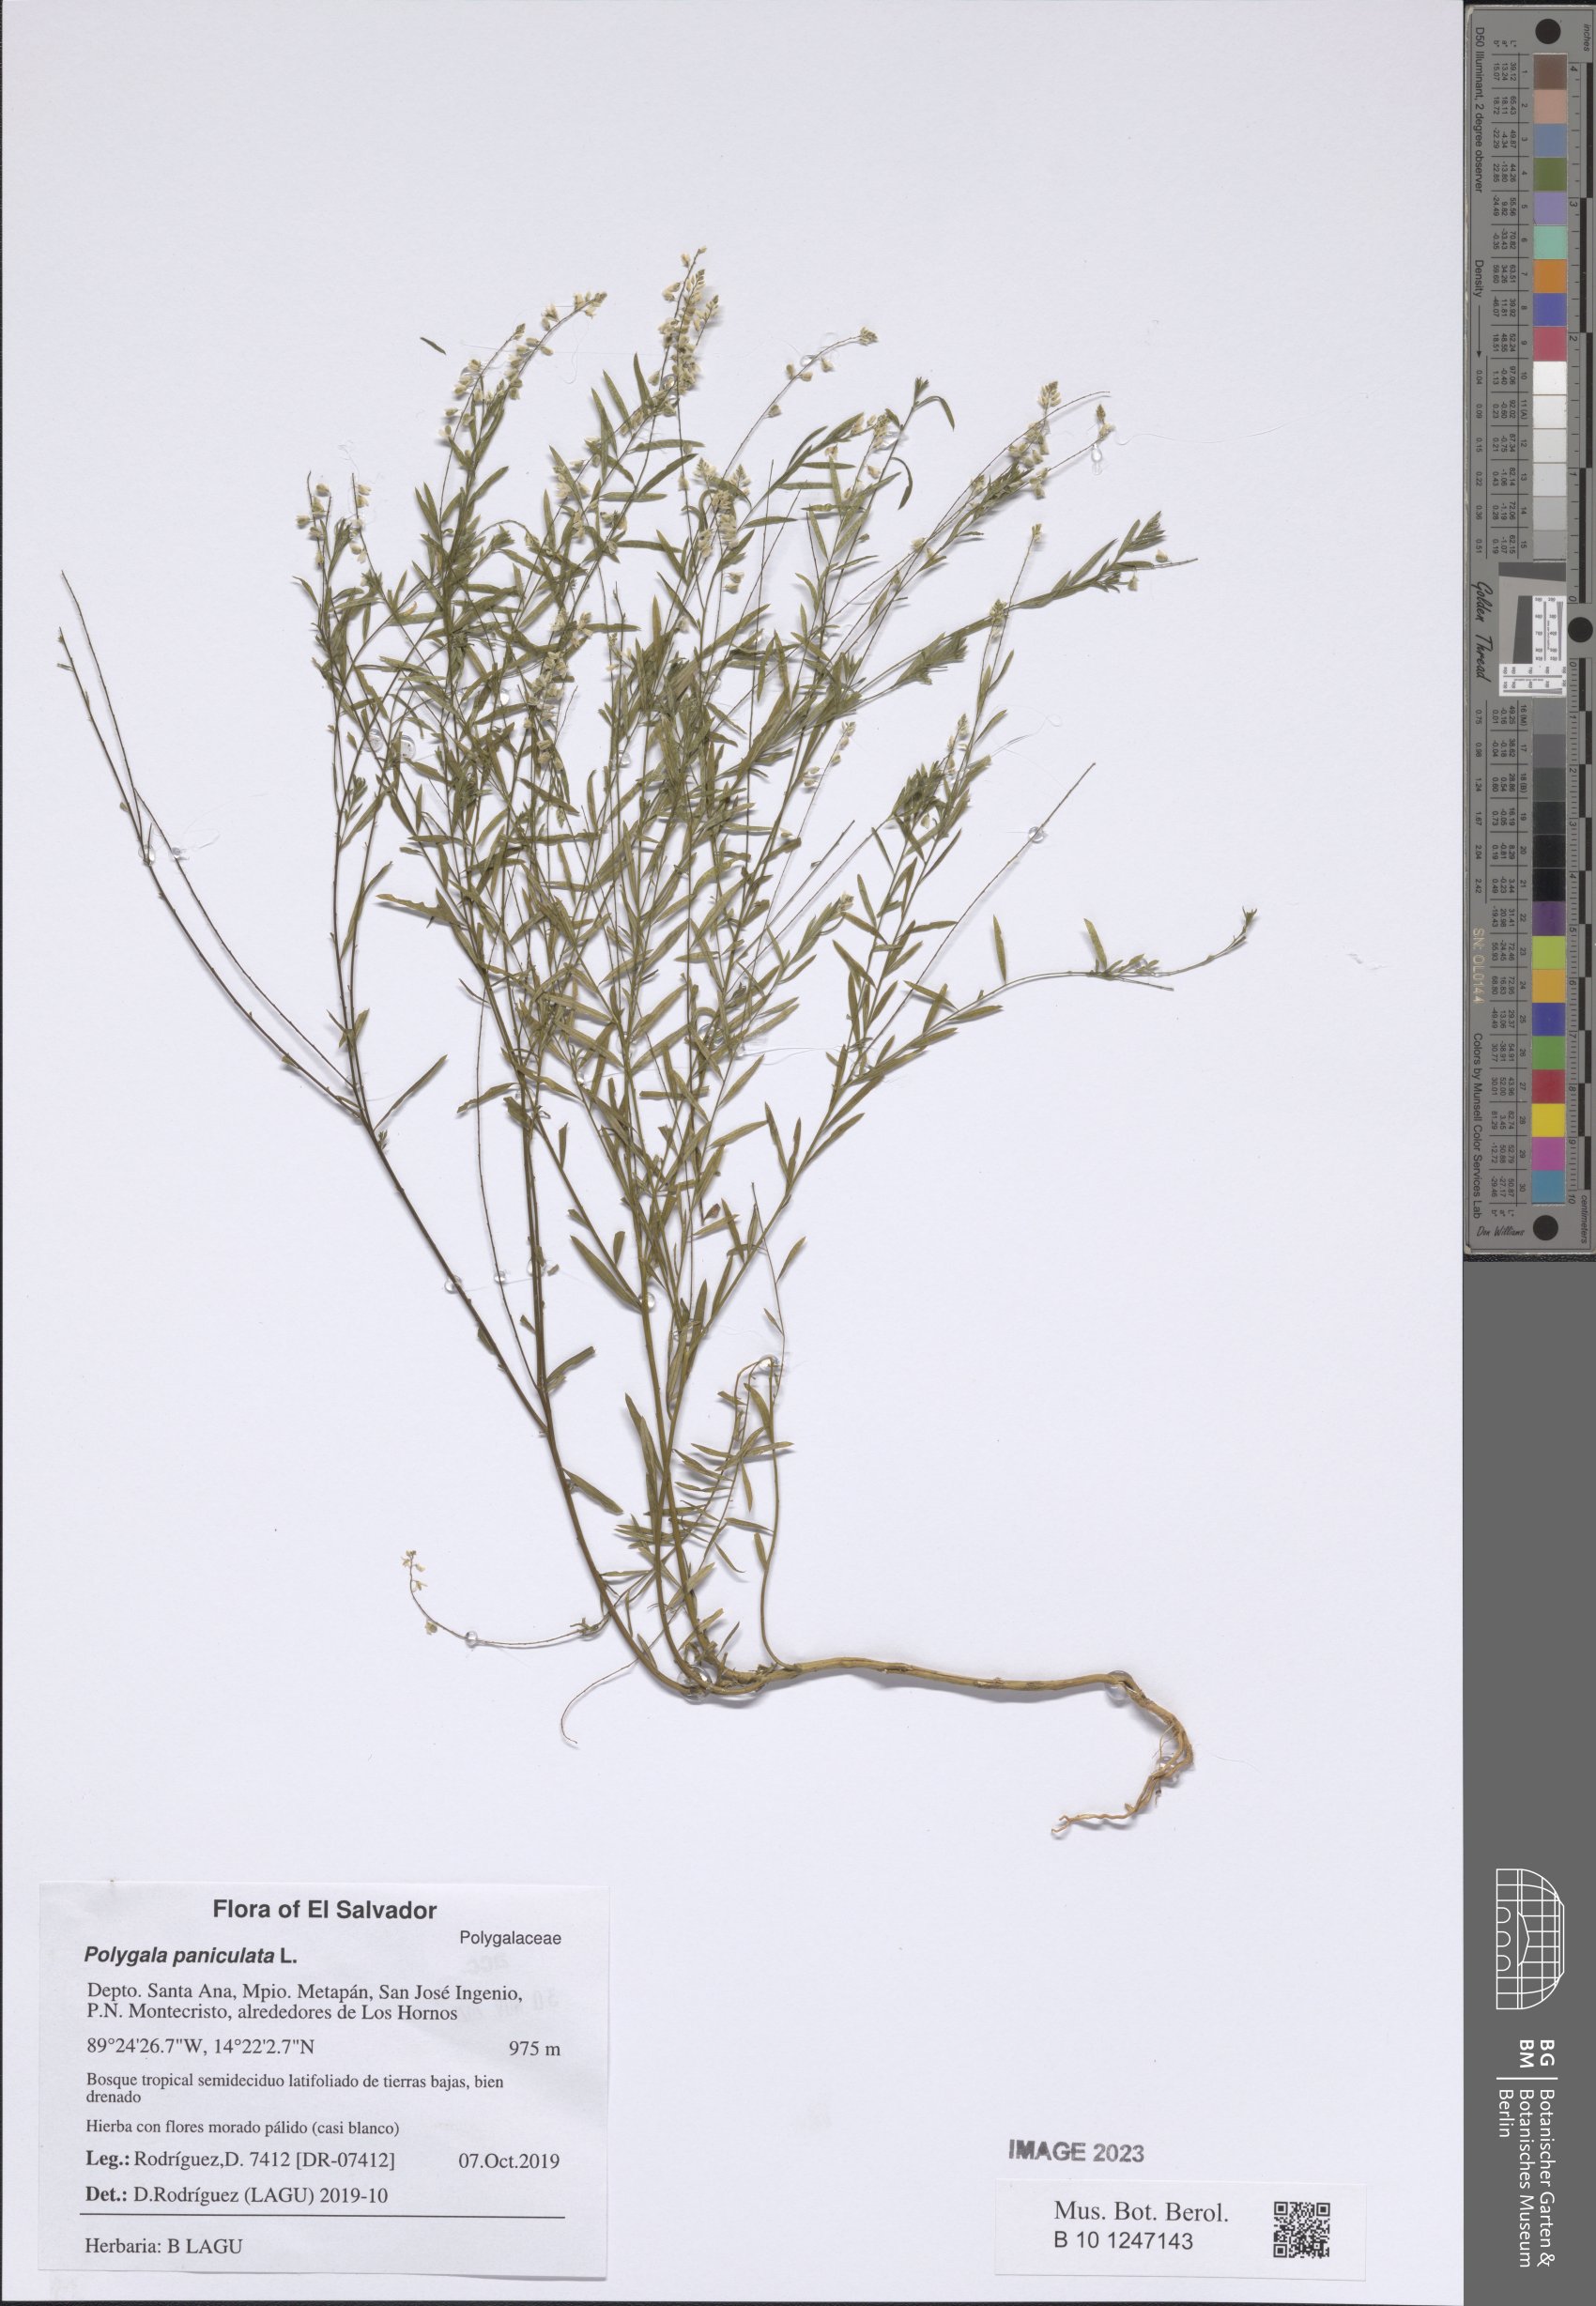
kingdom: Plantae
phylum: Tracheophyta
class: Magnoliopsida
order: Fabales
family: Polygalaceae
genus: Polygala
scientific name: Polygala paniculata
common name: Orosne
